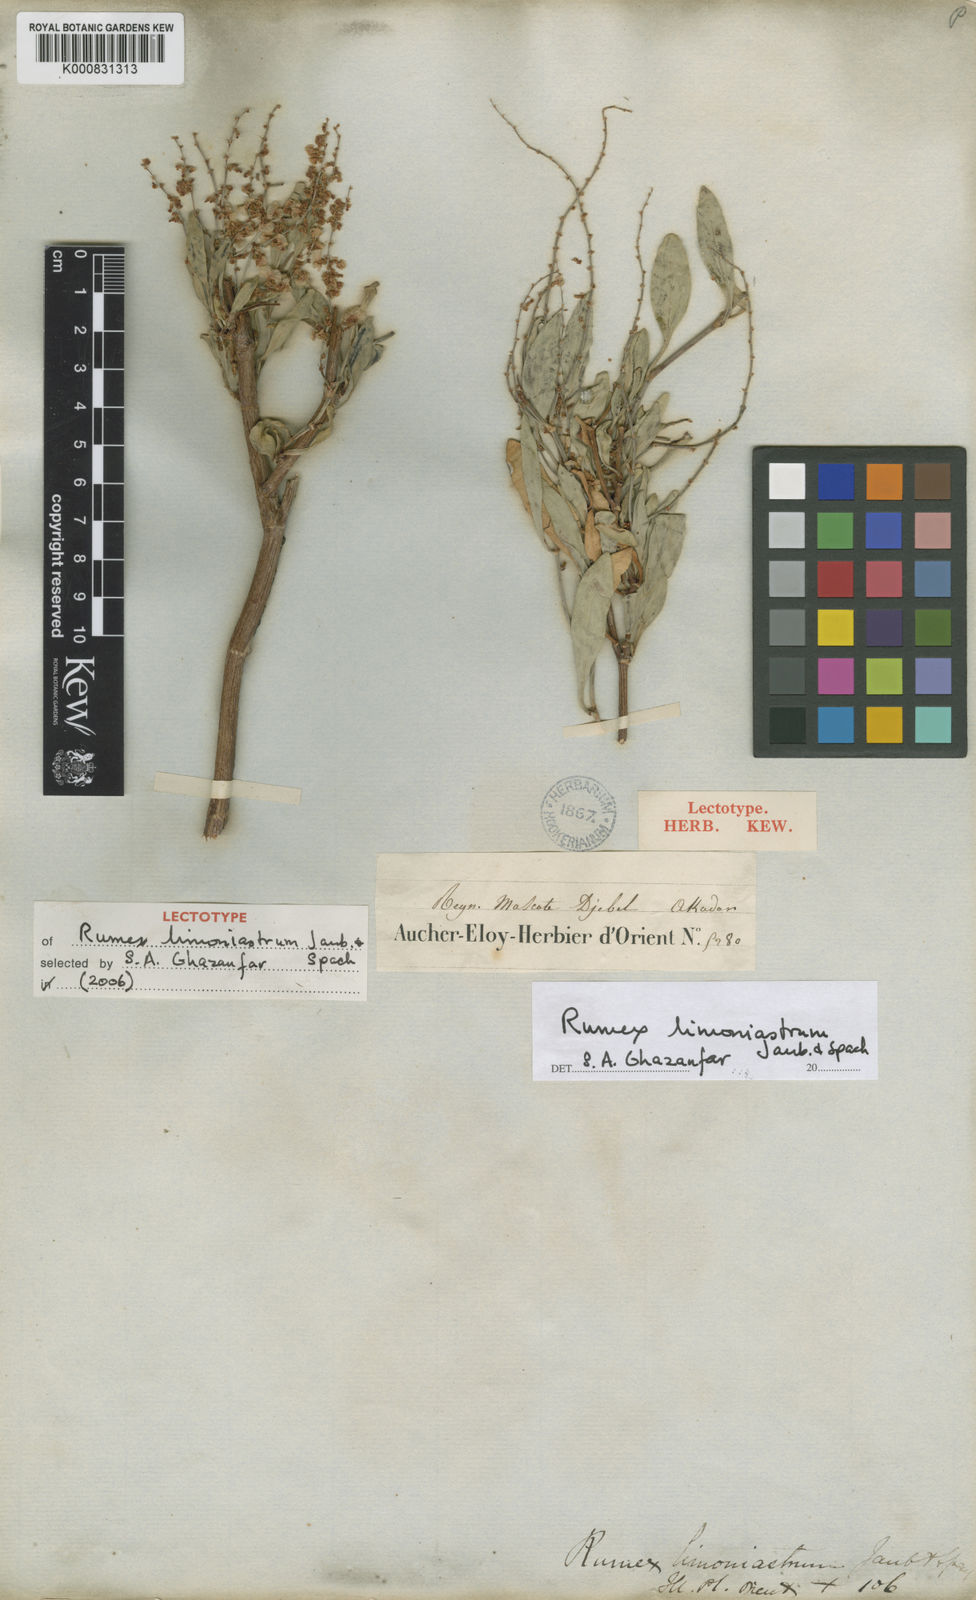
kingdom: Plantae
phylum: Tracheophyta
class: Magnoliopsida
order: Caryophyllales
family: Polygonaceae
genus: Rumex
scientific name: Rumex limoniastrum
